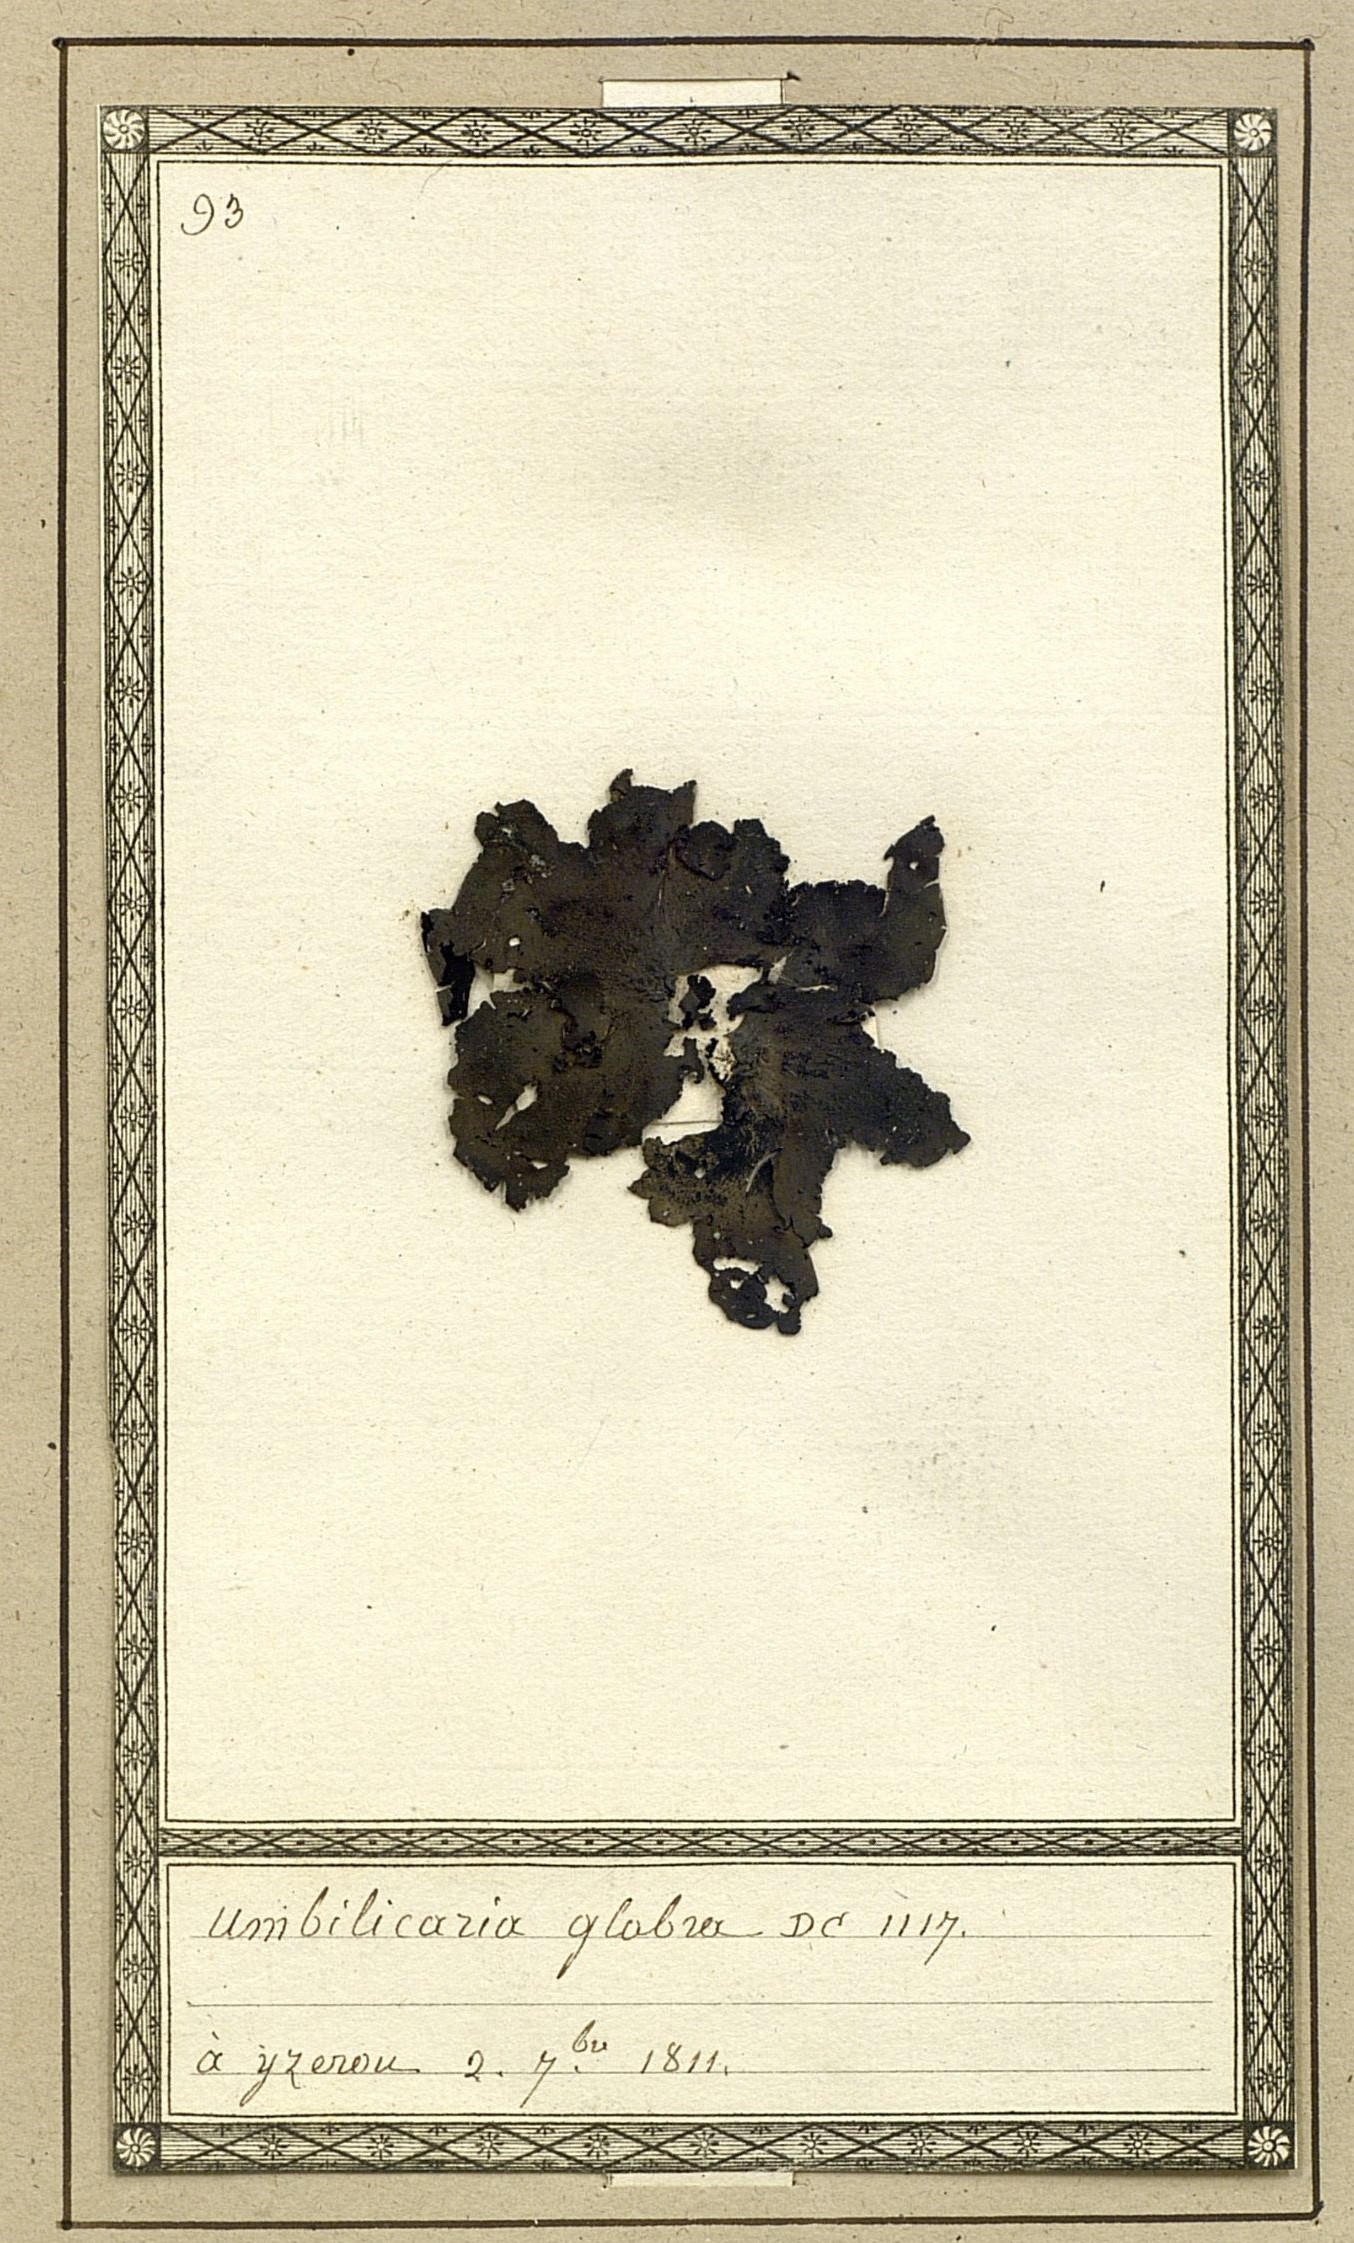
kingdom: Fungi
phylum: Ascomycota
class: Lecanoromycetes
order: Umbilicariales
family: Umbilicariaceae
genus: Umbilicaria
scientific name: Umbilicaria polyphylla
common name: Petalled rocktripe lichen
